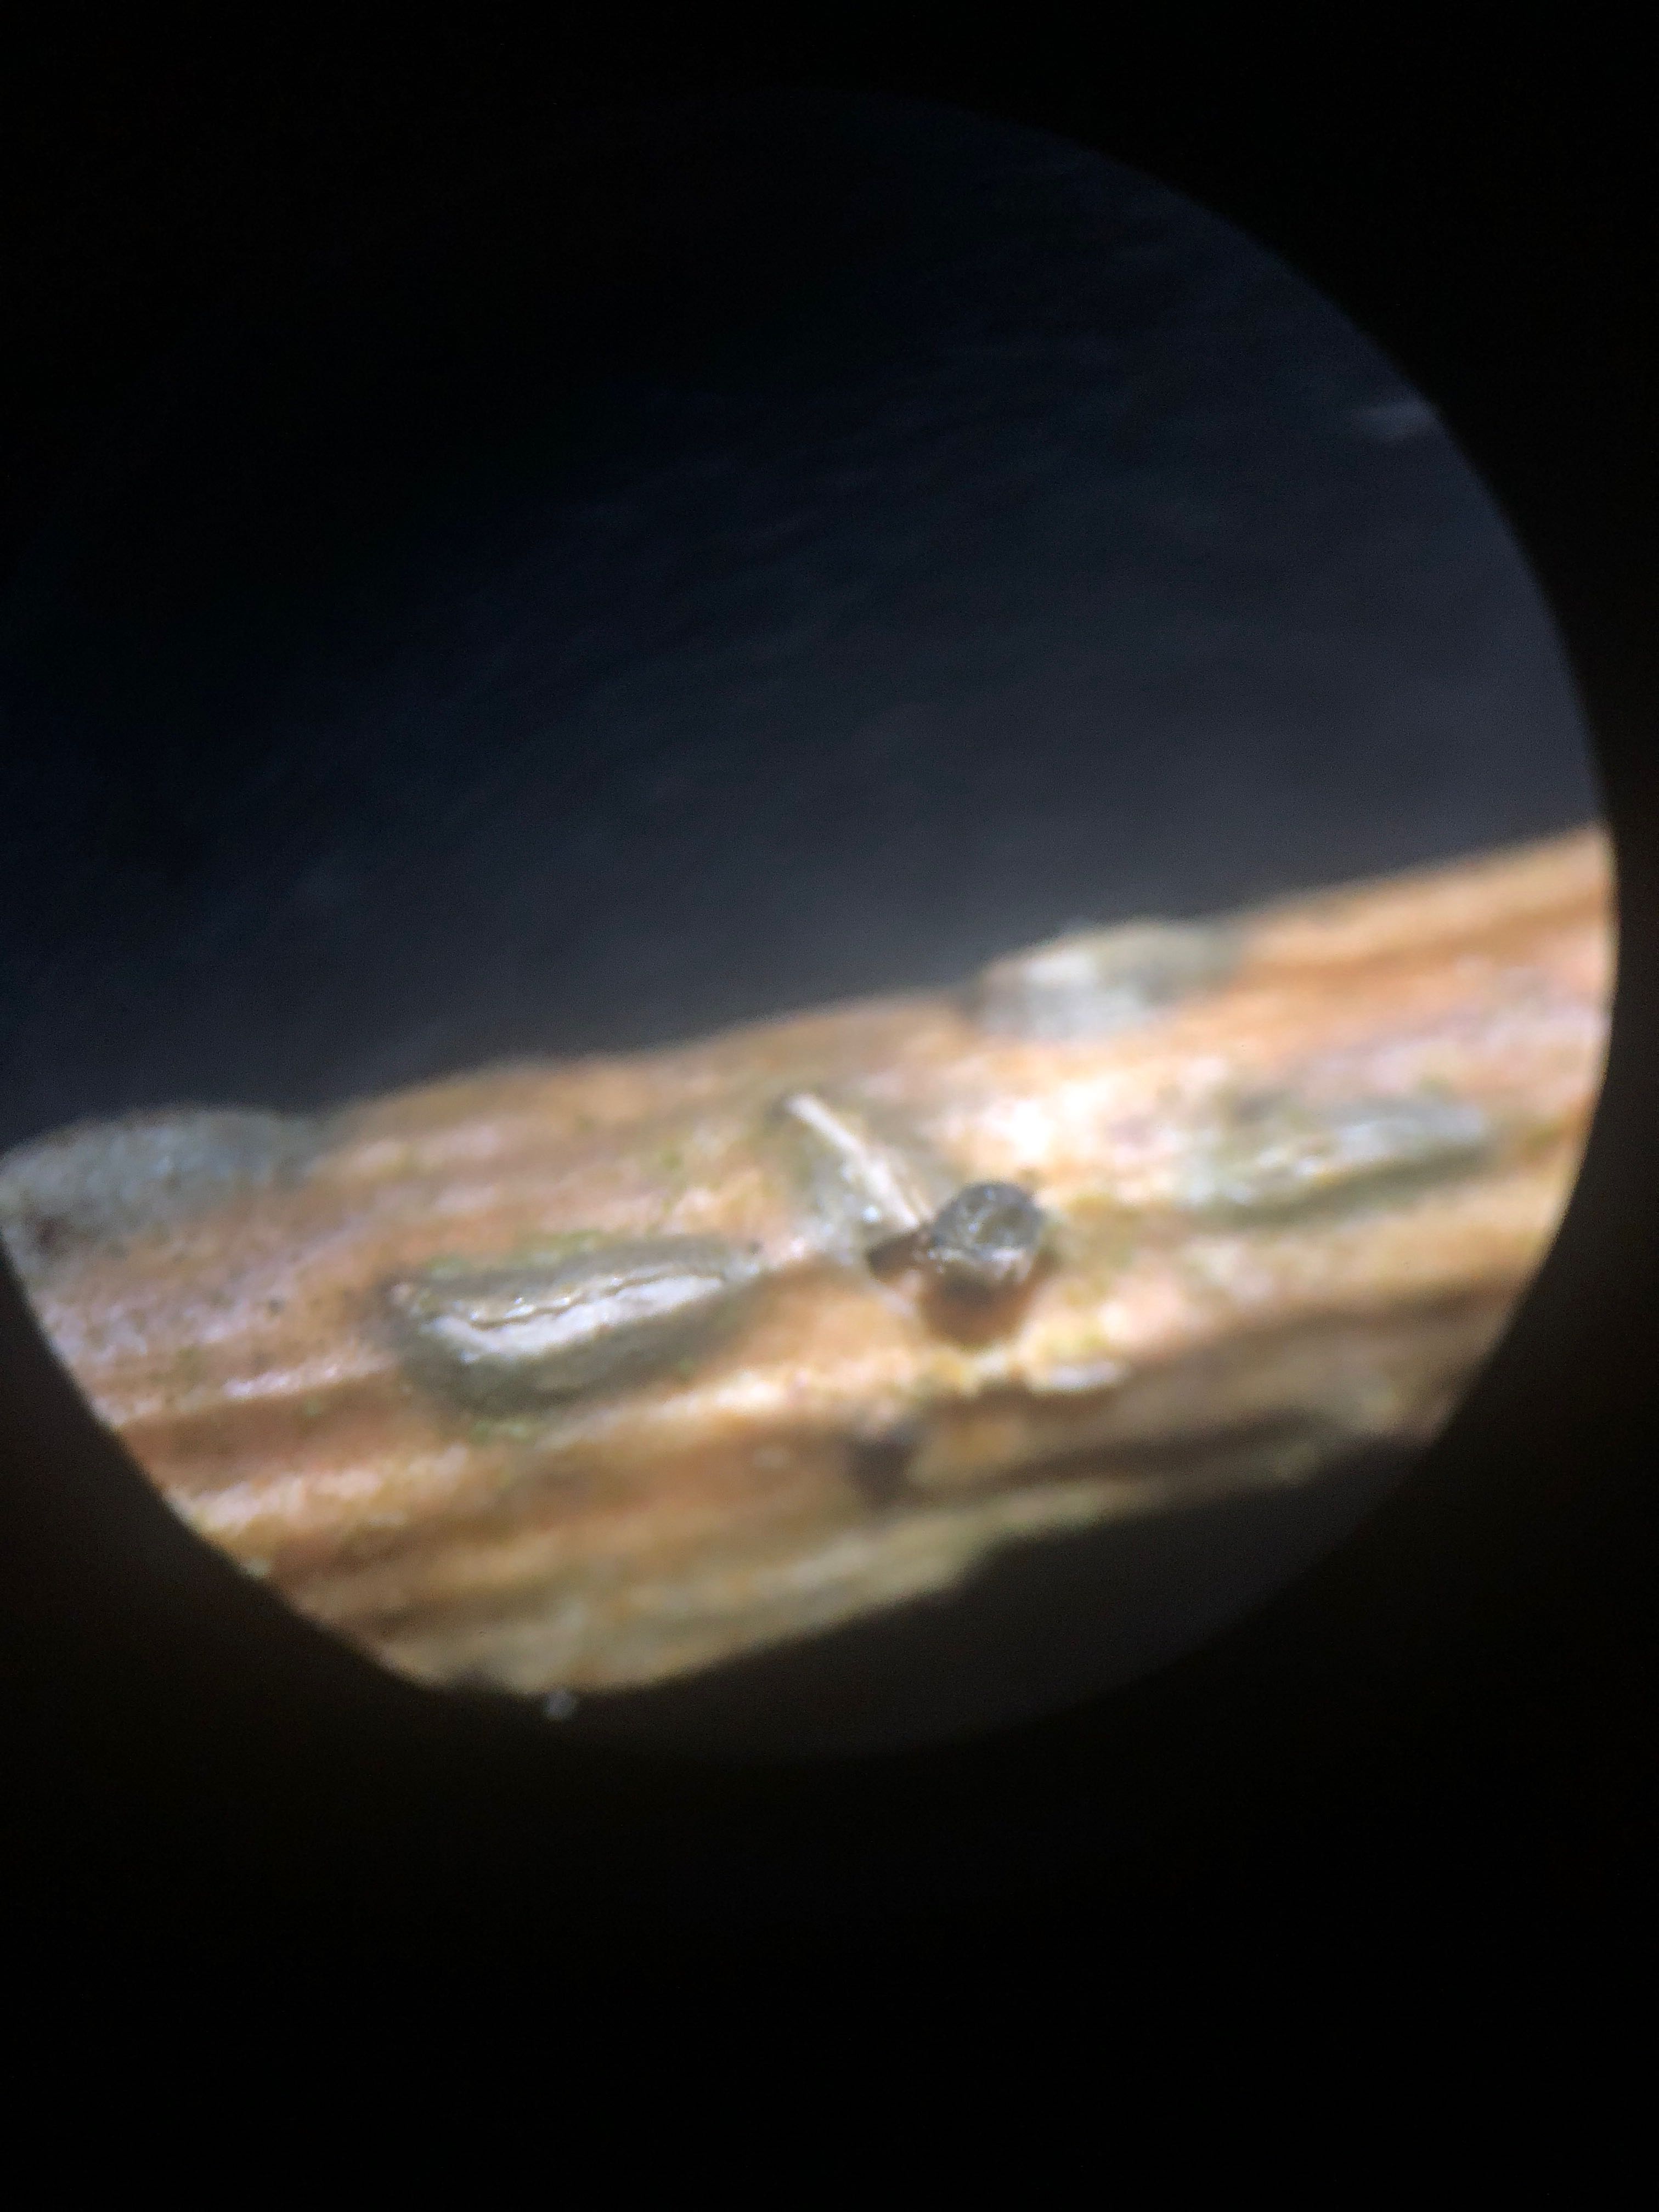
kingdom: Fungi
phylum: Ascomycota
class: Leotiomycetes
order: Rhytismatales
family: Rhytismataceae
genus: Colpoma
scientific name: Colpoma quercinum
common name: ege-sprækkeskive
